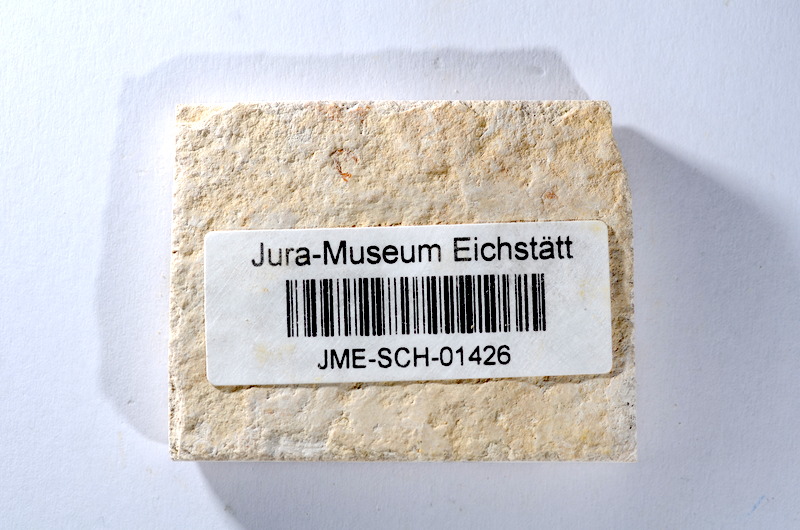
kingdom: Animalia
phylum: Chordata
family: Ascalaboidae
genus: Tharsis
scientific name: Tharsis dubius
